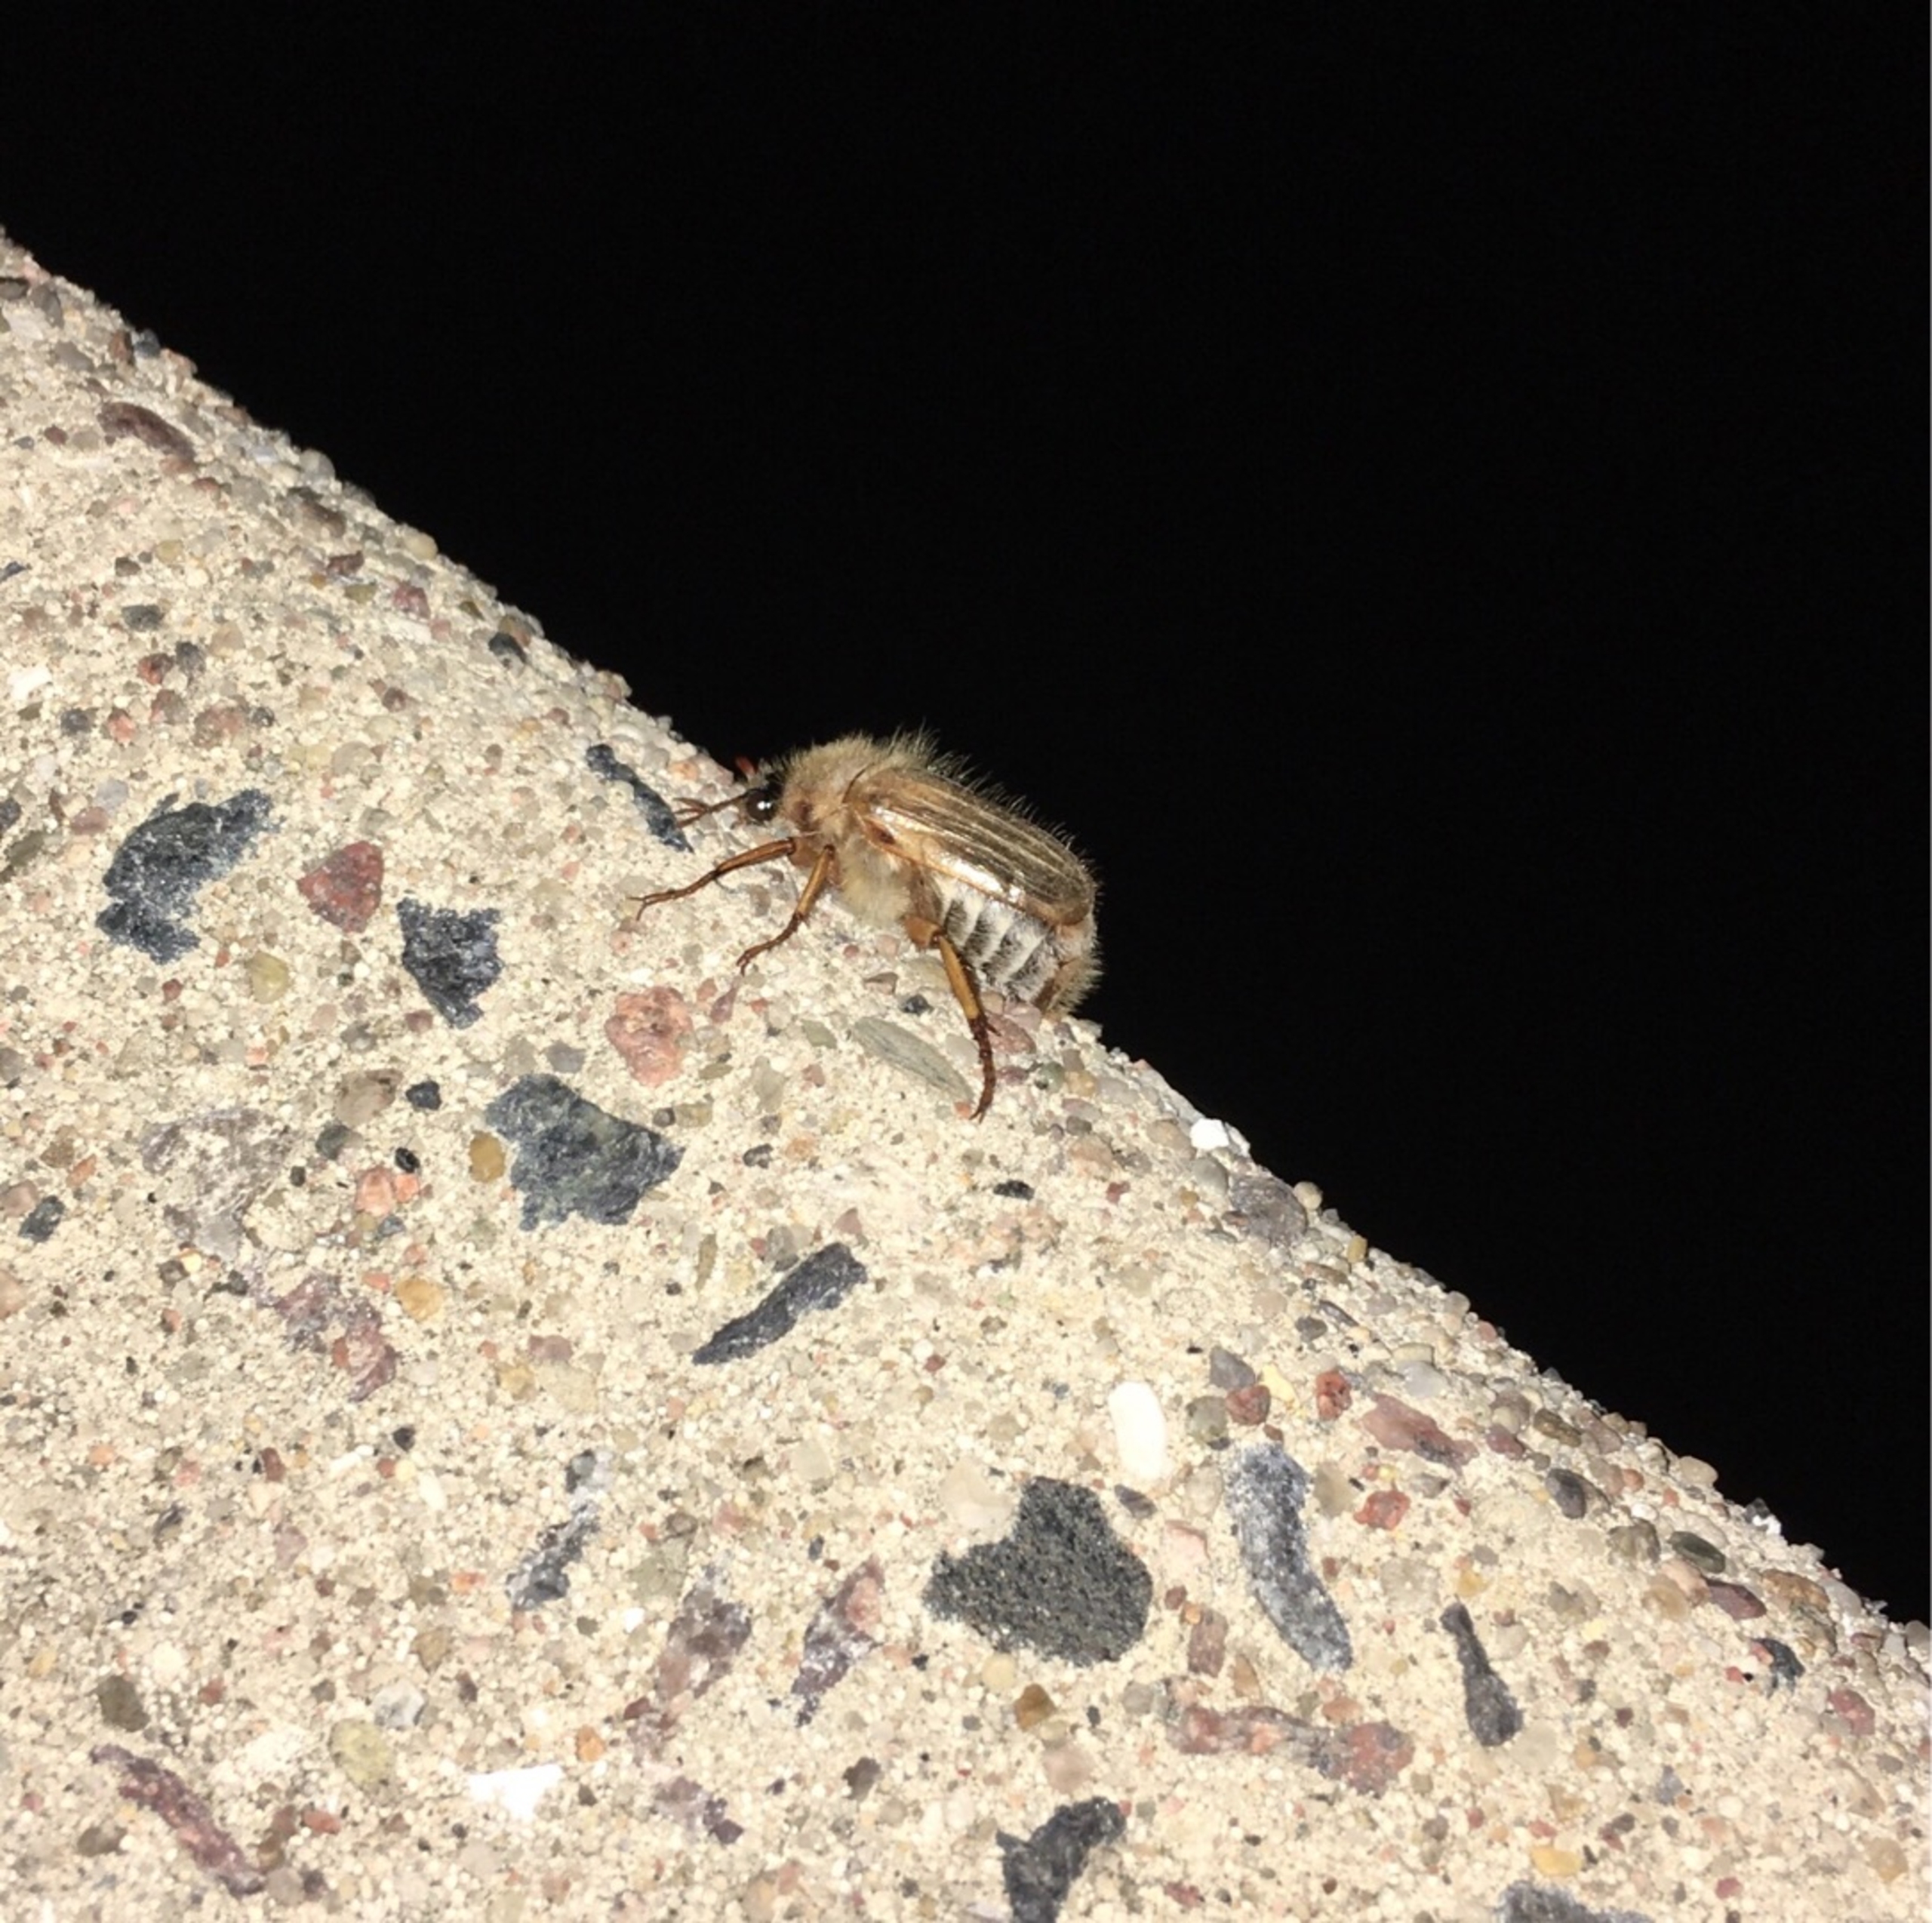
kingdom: Animalia
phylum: Arthropoda
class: Insecta
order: Coleoptera
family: Scarabaeidae
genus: Amphimallon
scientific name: Amphimallon solstitiale
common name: Sankthansoldenborre
